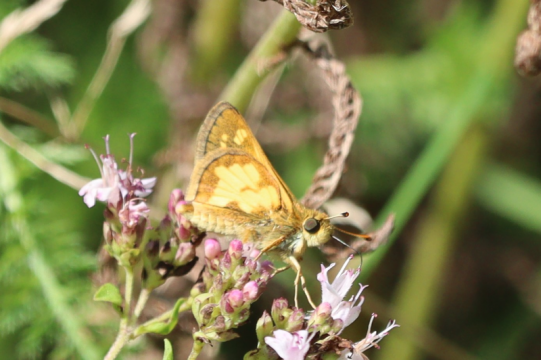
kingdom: Animalia
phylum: Arthropoda
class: Insecta
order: Lepidoptera
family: Hesperiidae
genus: Polites
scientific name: Polites coras
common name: Peck's Skipper
